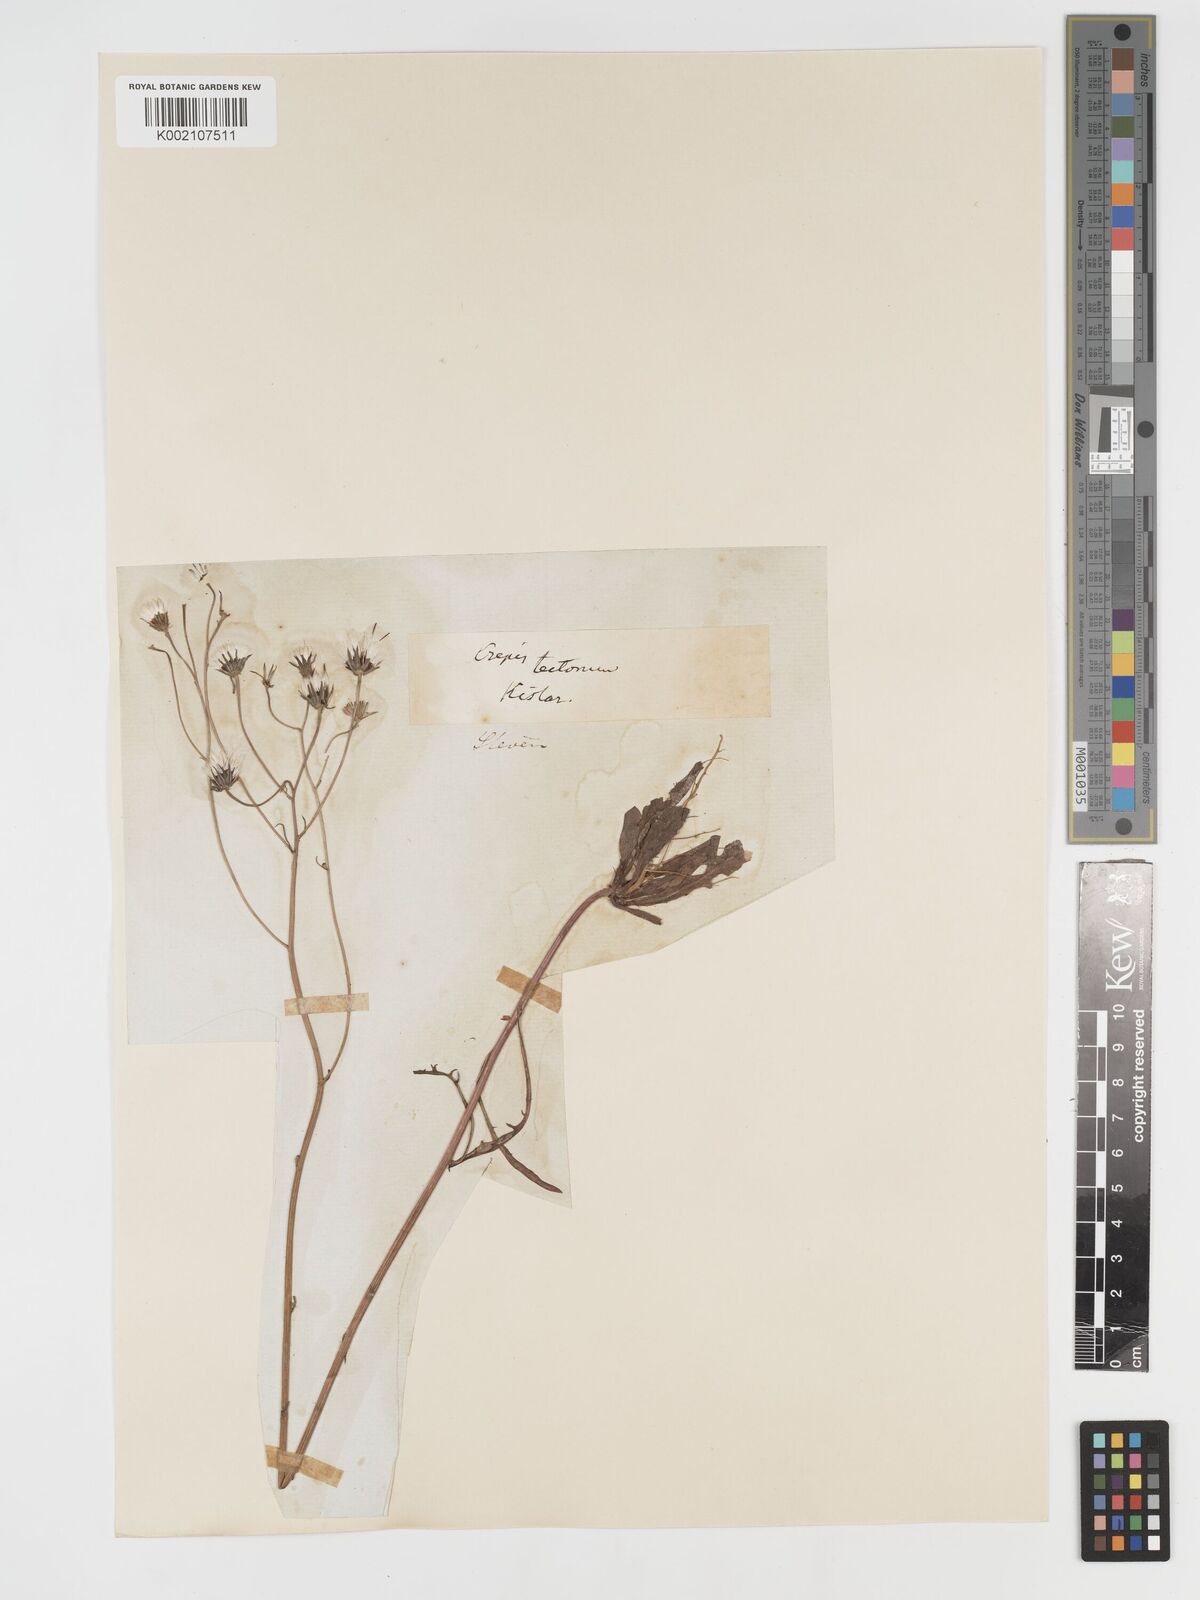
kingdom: Plantae
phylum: Tracheophyta
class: Magnoliopsida
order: Asterales
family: Asteraceae
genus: Crepis
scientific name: Crepis tectorum
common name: Narrow-leaved hawk's-beard
